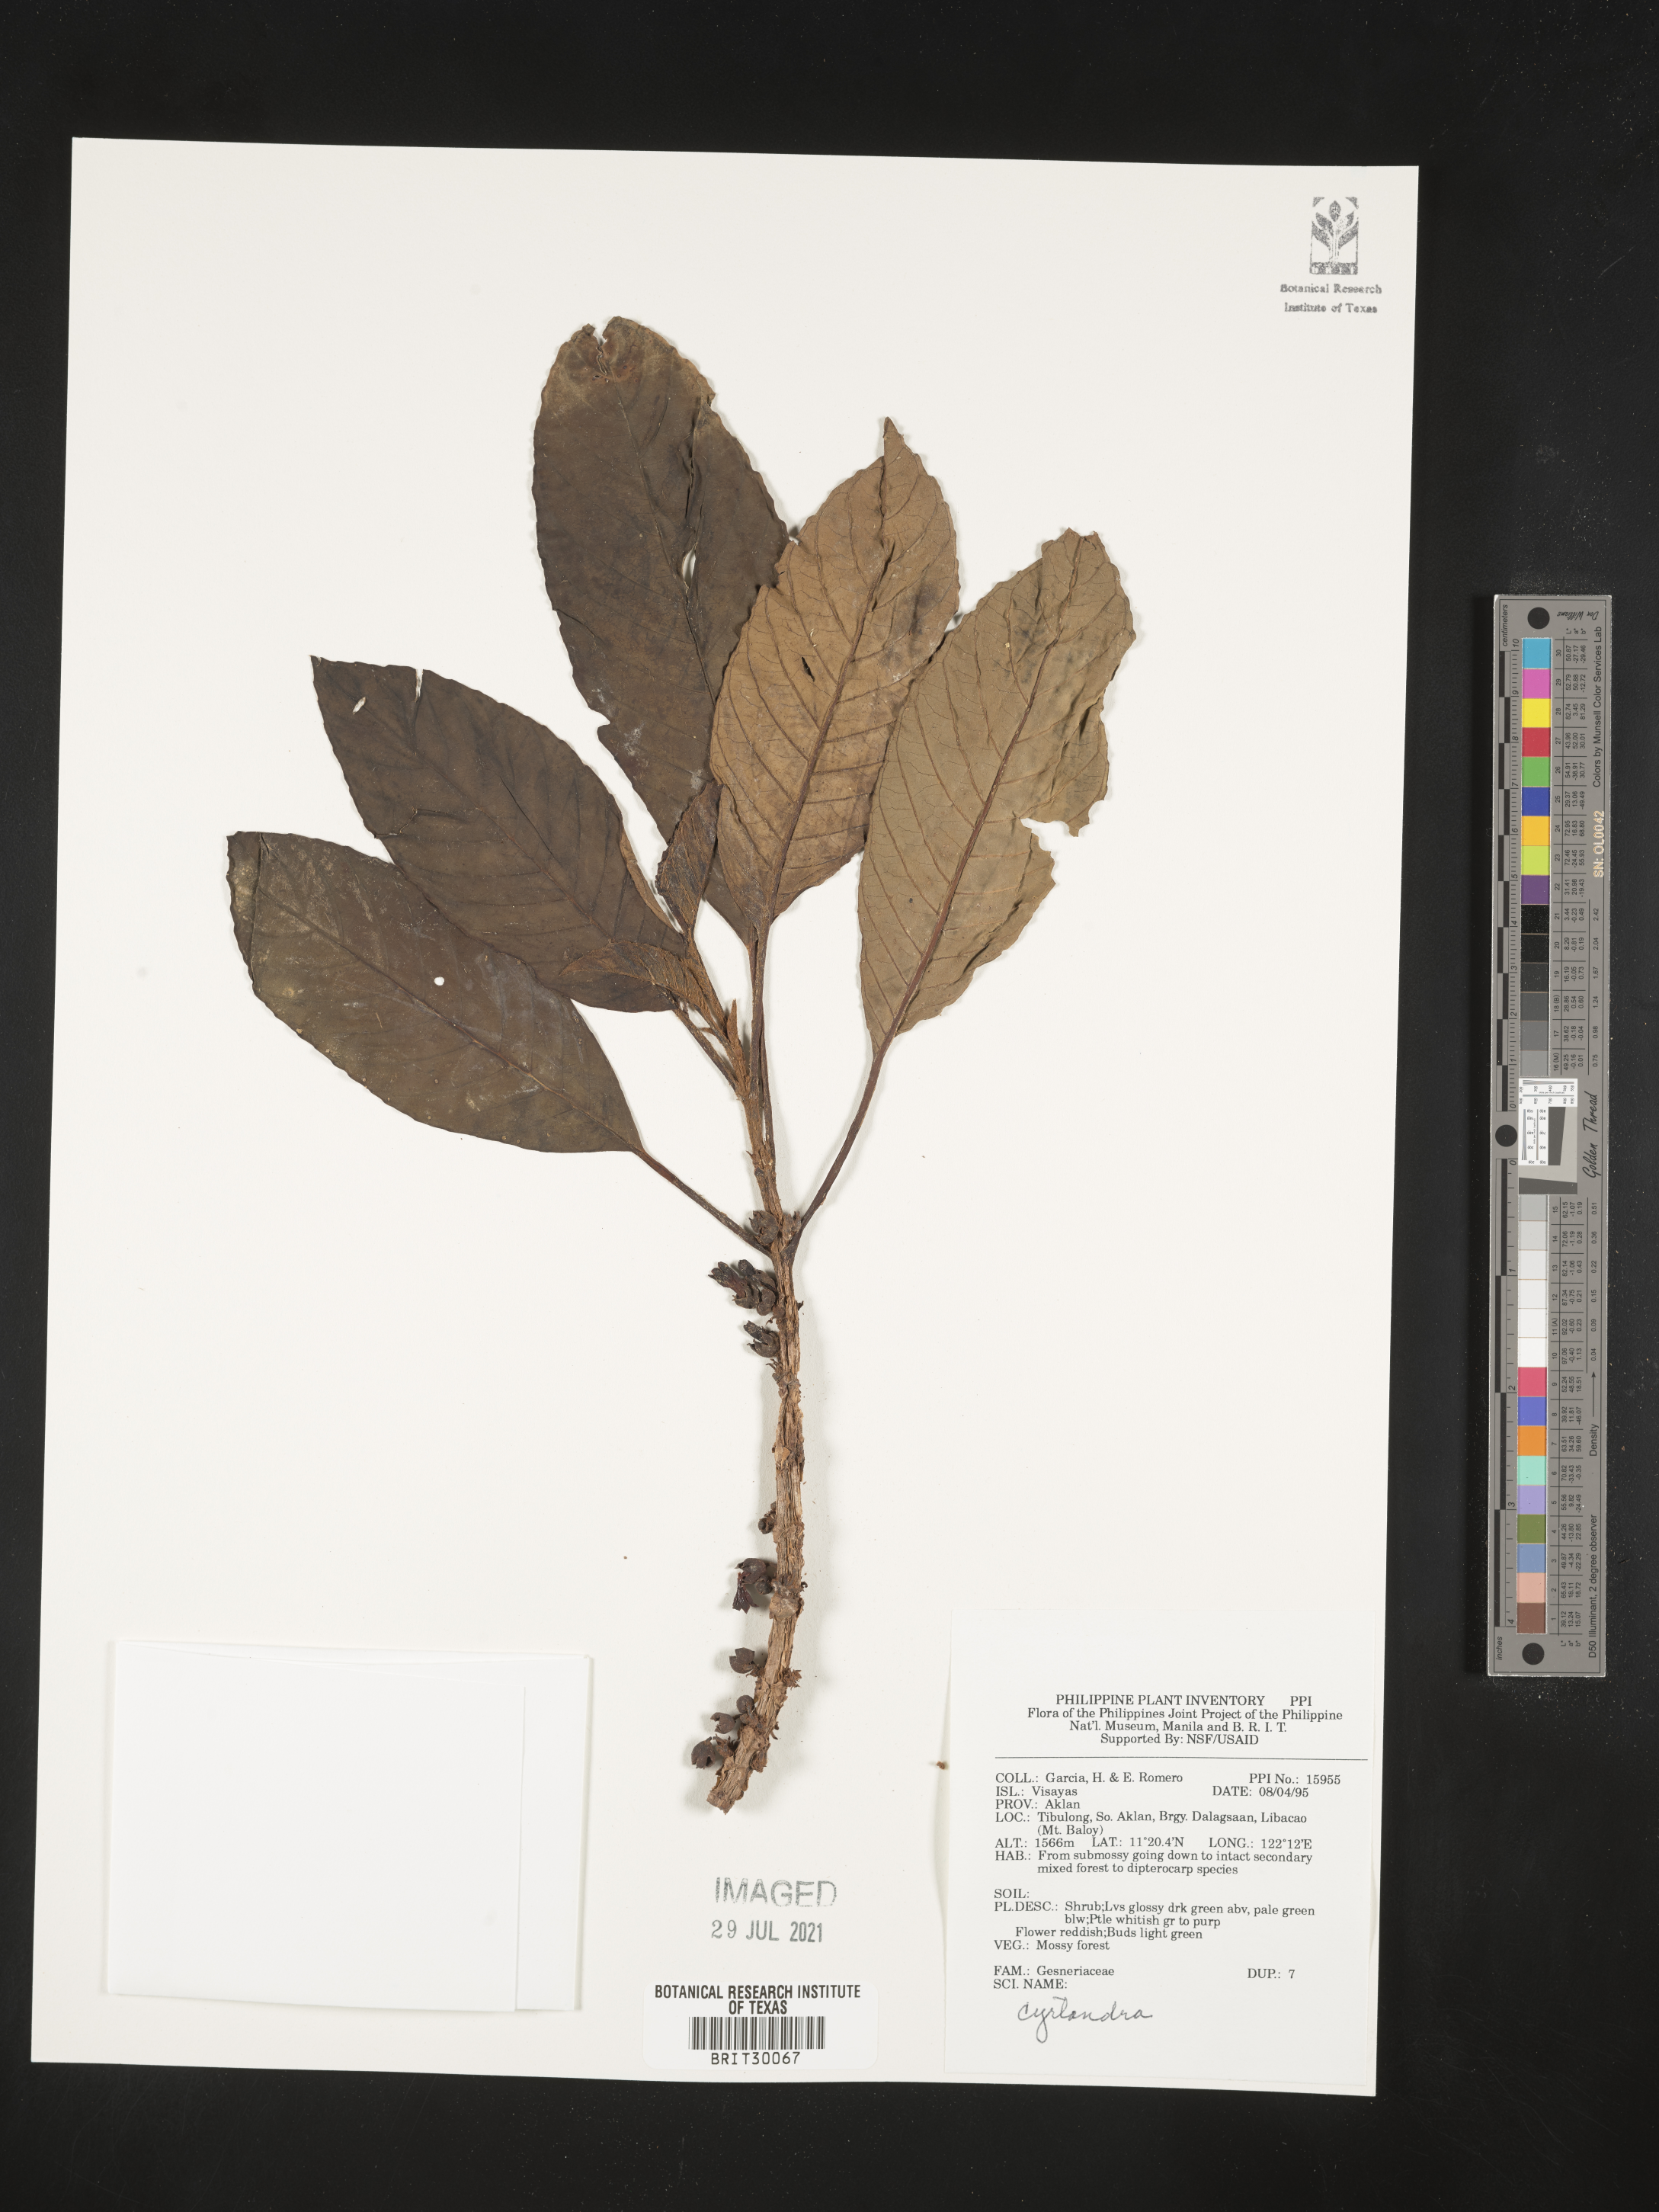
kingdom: Plantae
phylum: Tracheophyta
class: Magnoliopsida
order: Lamiales
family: Gesneriaceae
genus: Cyrtandra
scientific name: Cyrtandra
